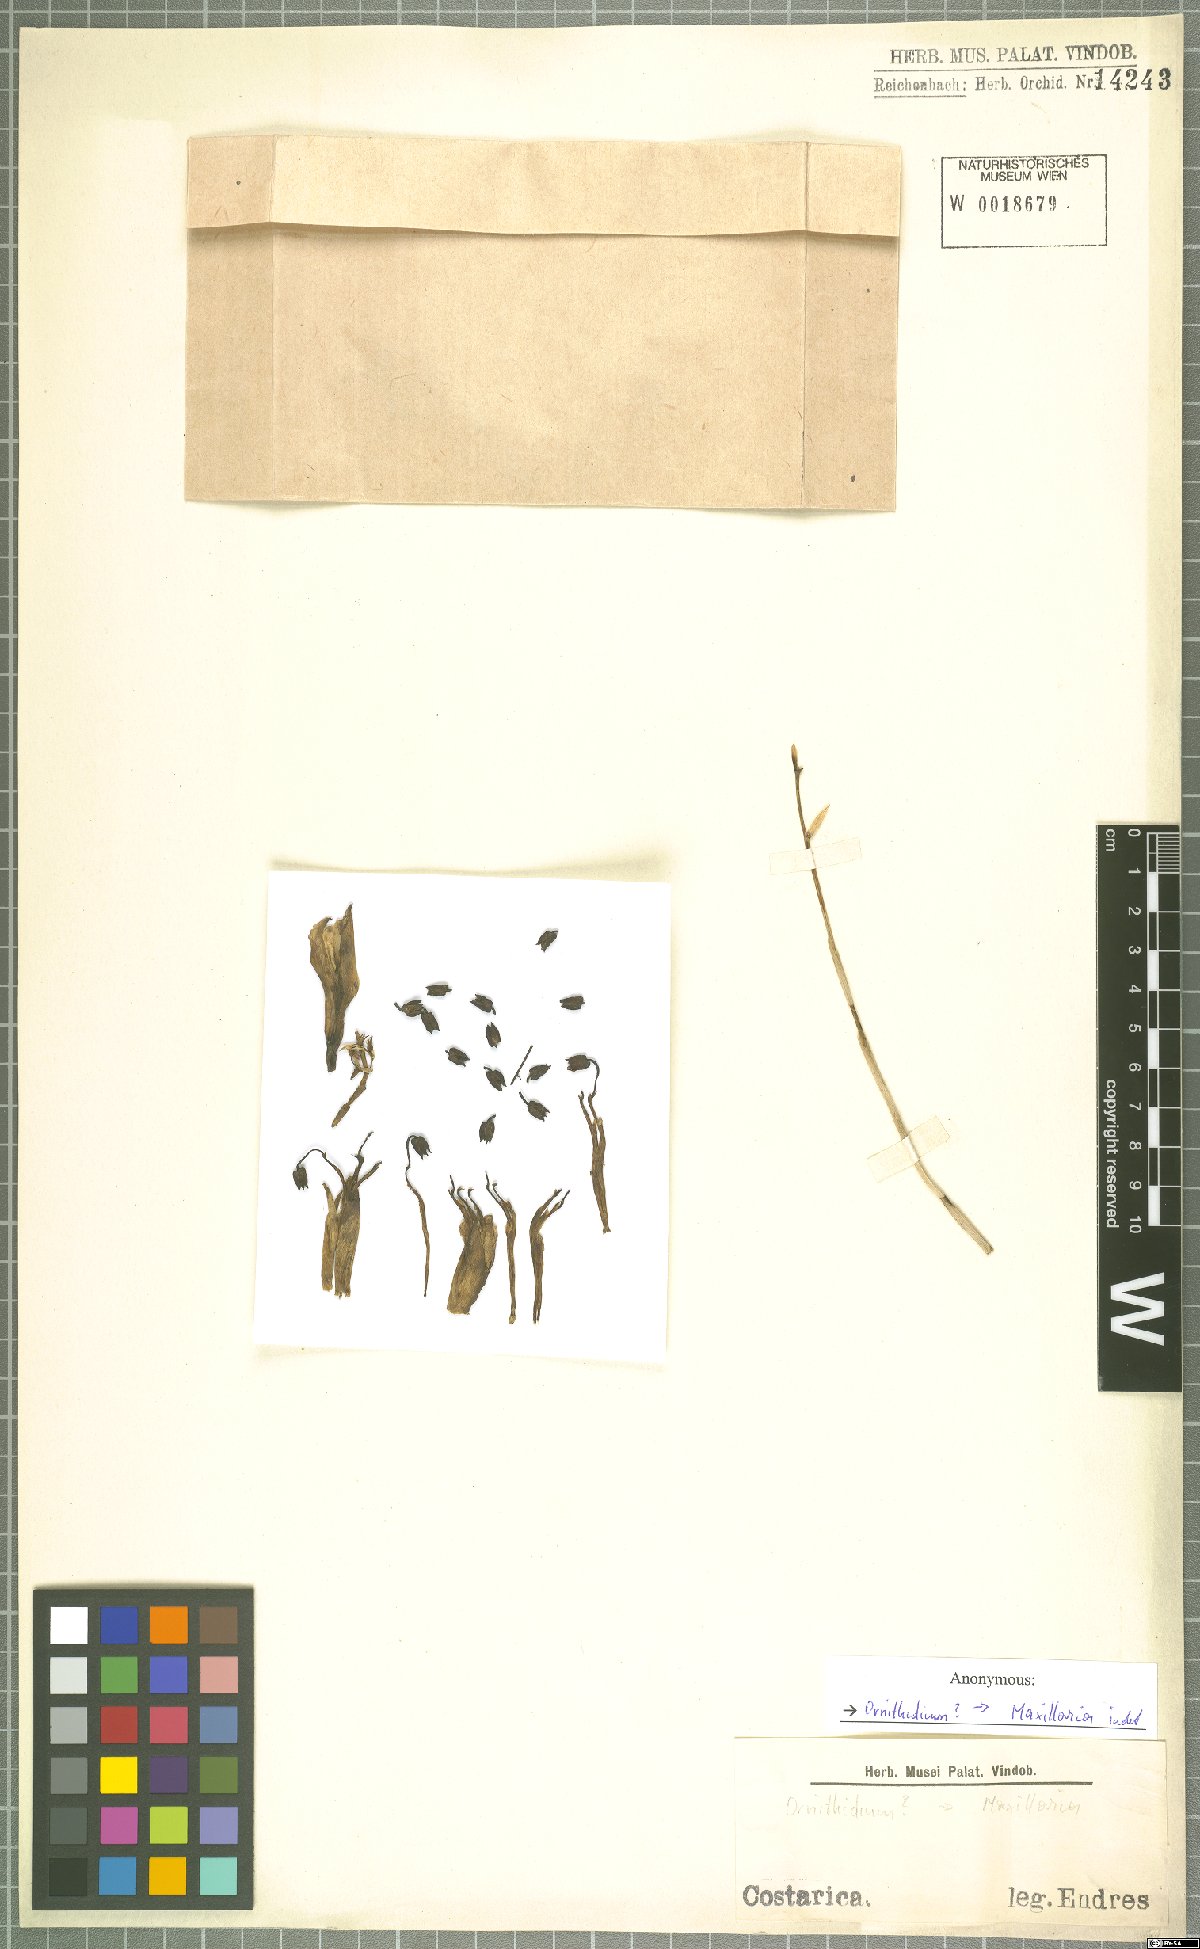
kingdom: Plantae
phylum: Tracheophyta
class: Liliopsida
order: Asparagales
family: Orchidaceae
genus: Maxillaria
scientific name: Maxillaria
